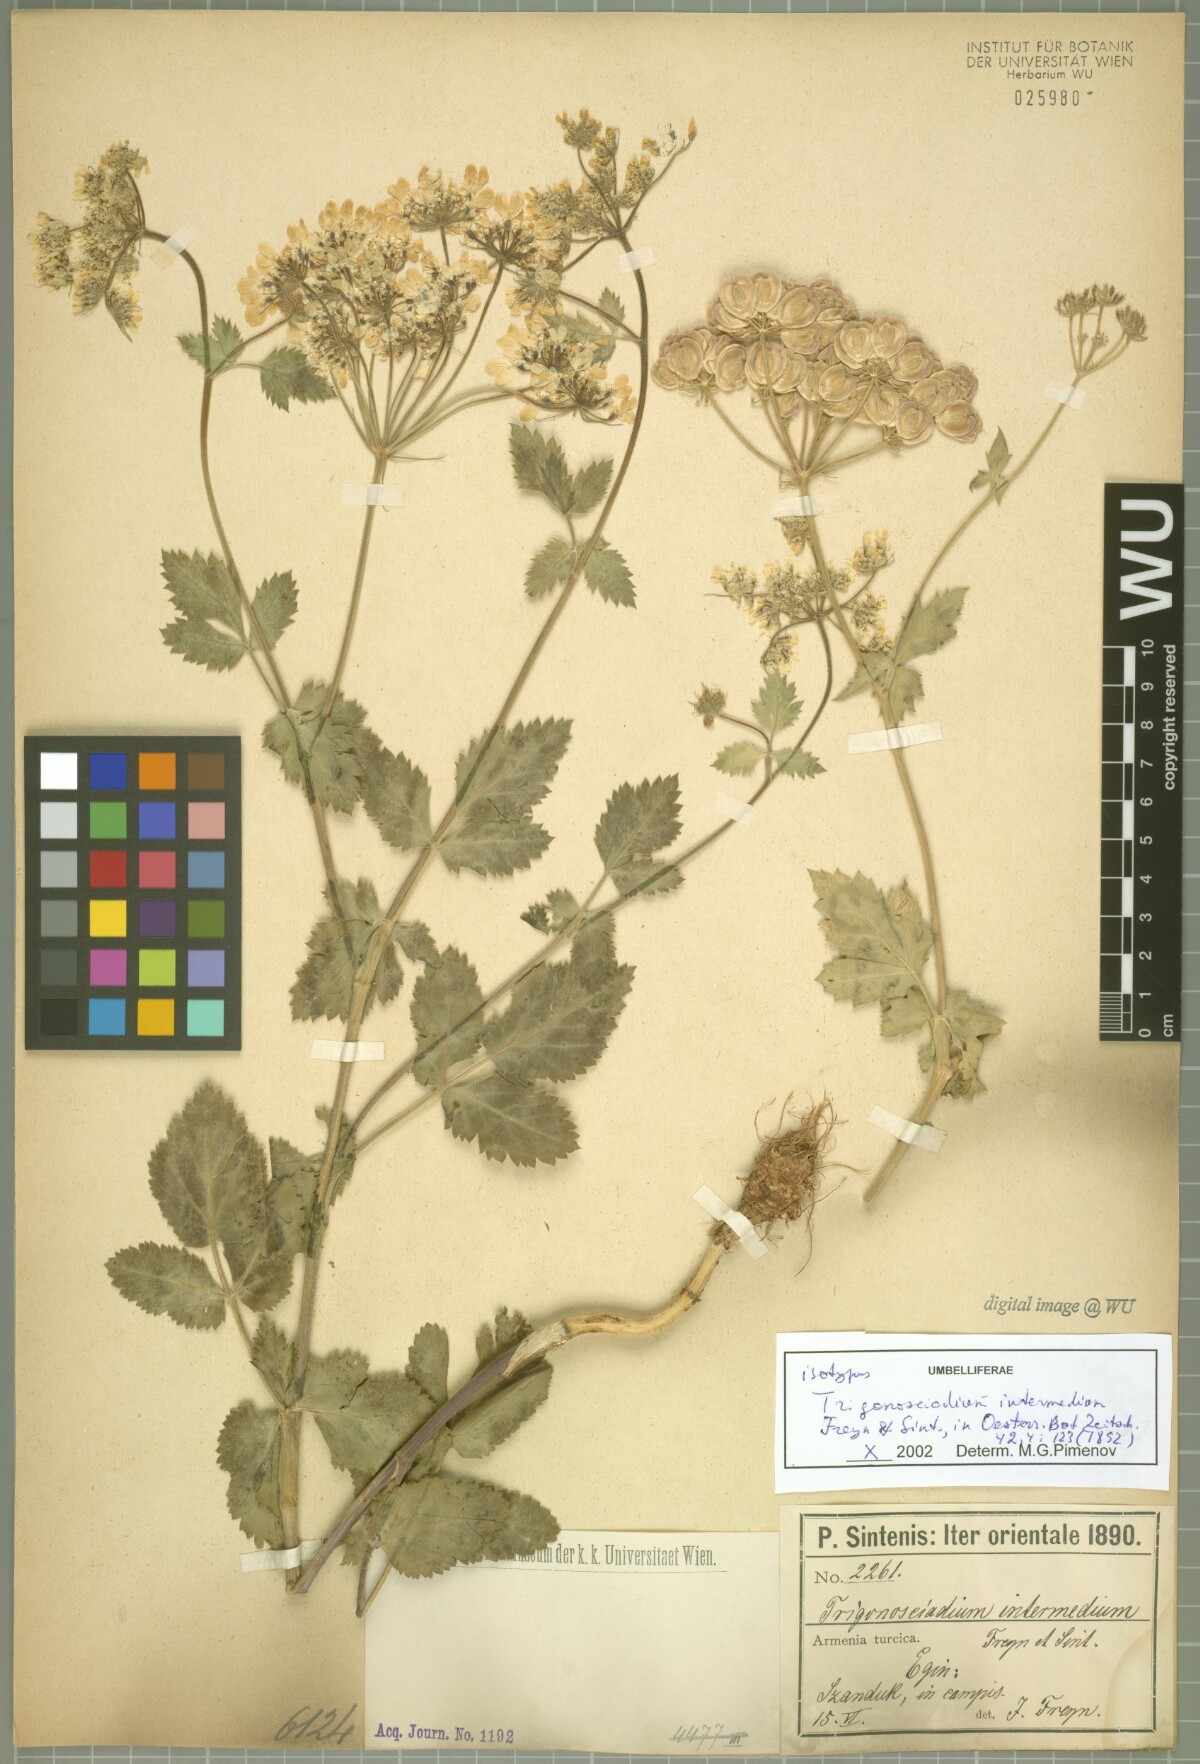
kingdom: Plantae
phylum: Tracheophyta
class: Magnoliopsida
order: Apiales
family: Apiaceae
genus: Trigonosciadium
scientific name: Trigonosciadium intermedium
